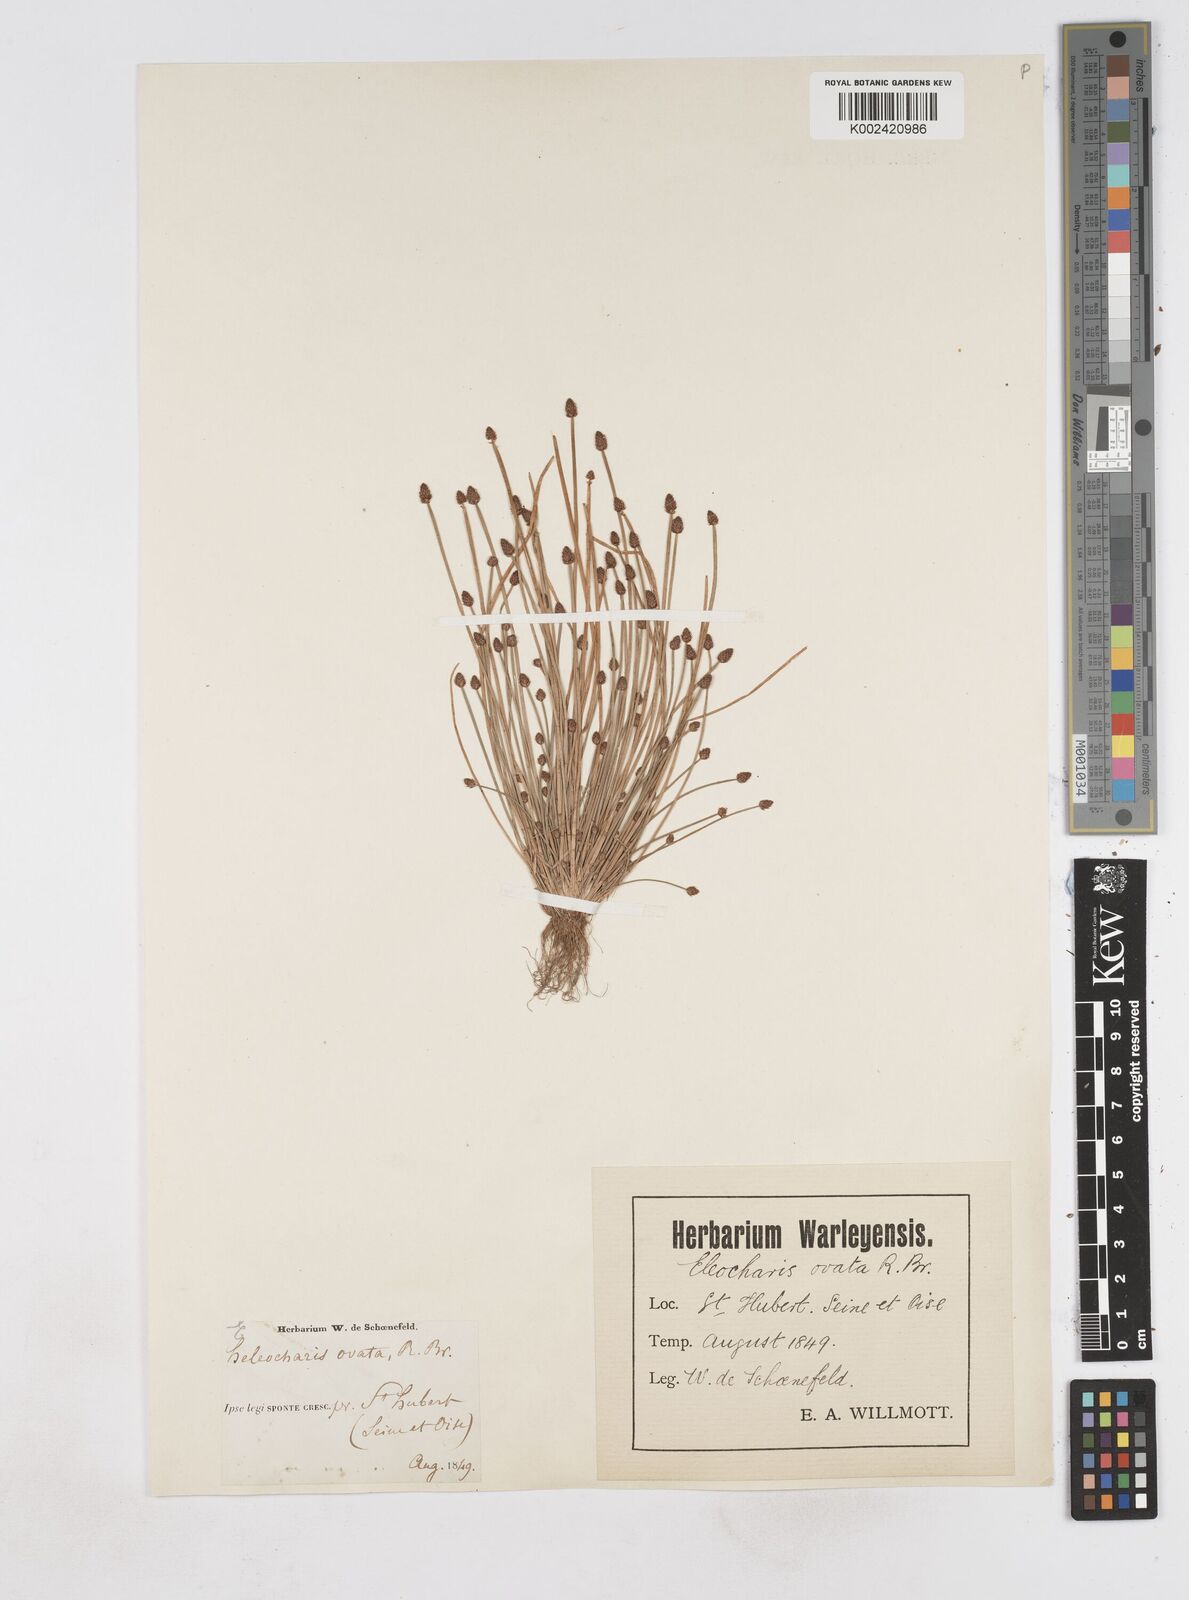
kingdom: Plantae
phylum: Tracheophyta
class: Liliopsida
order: Poales
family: Cyperaceae
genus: Eleocharis
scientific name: Eleocharis ovata
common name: Oval spike-rush
